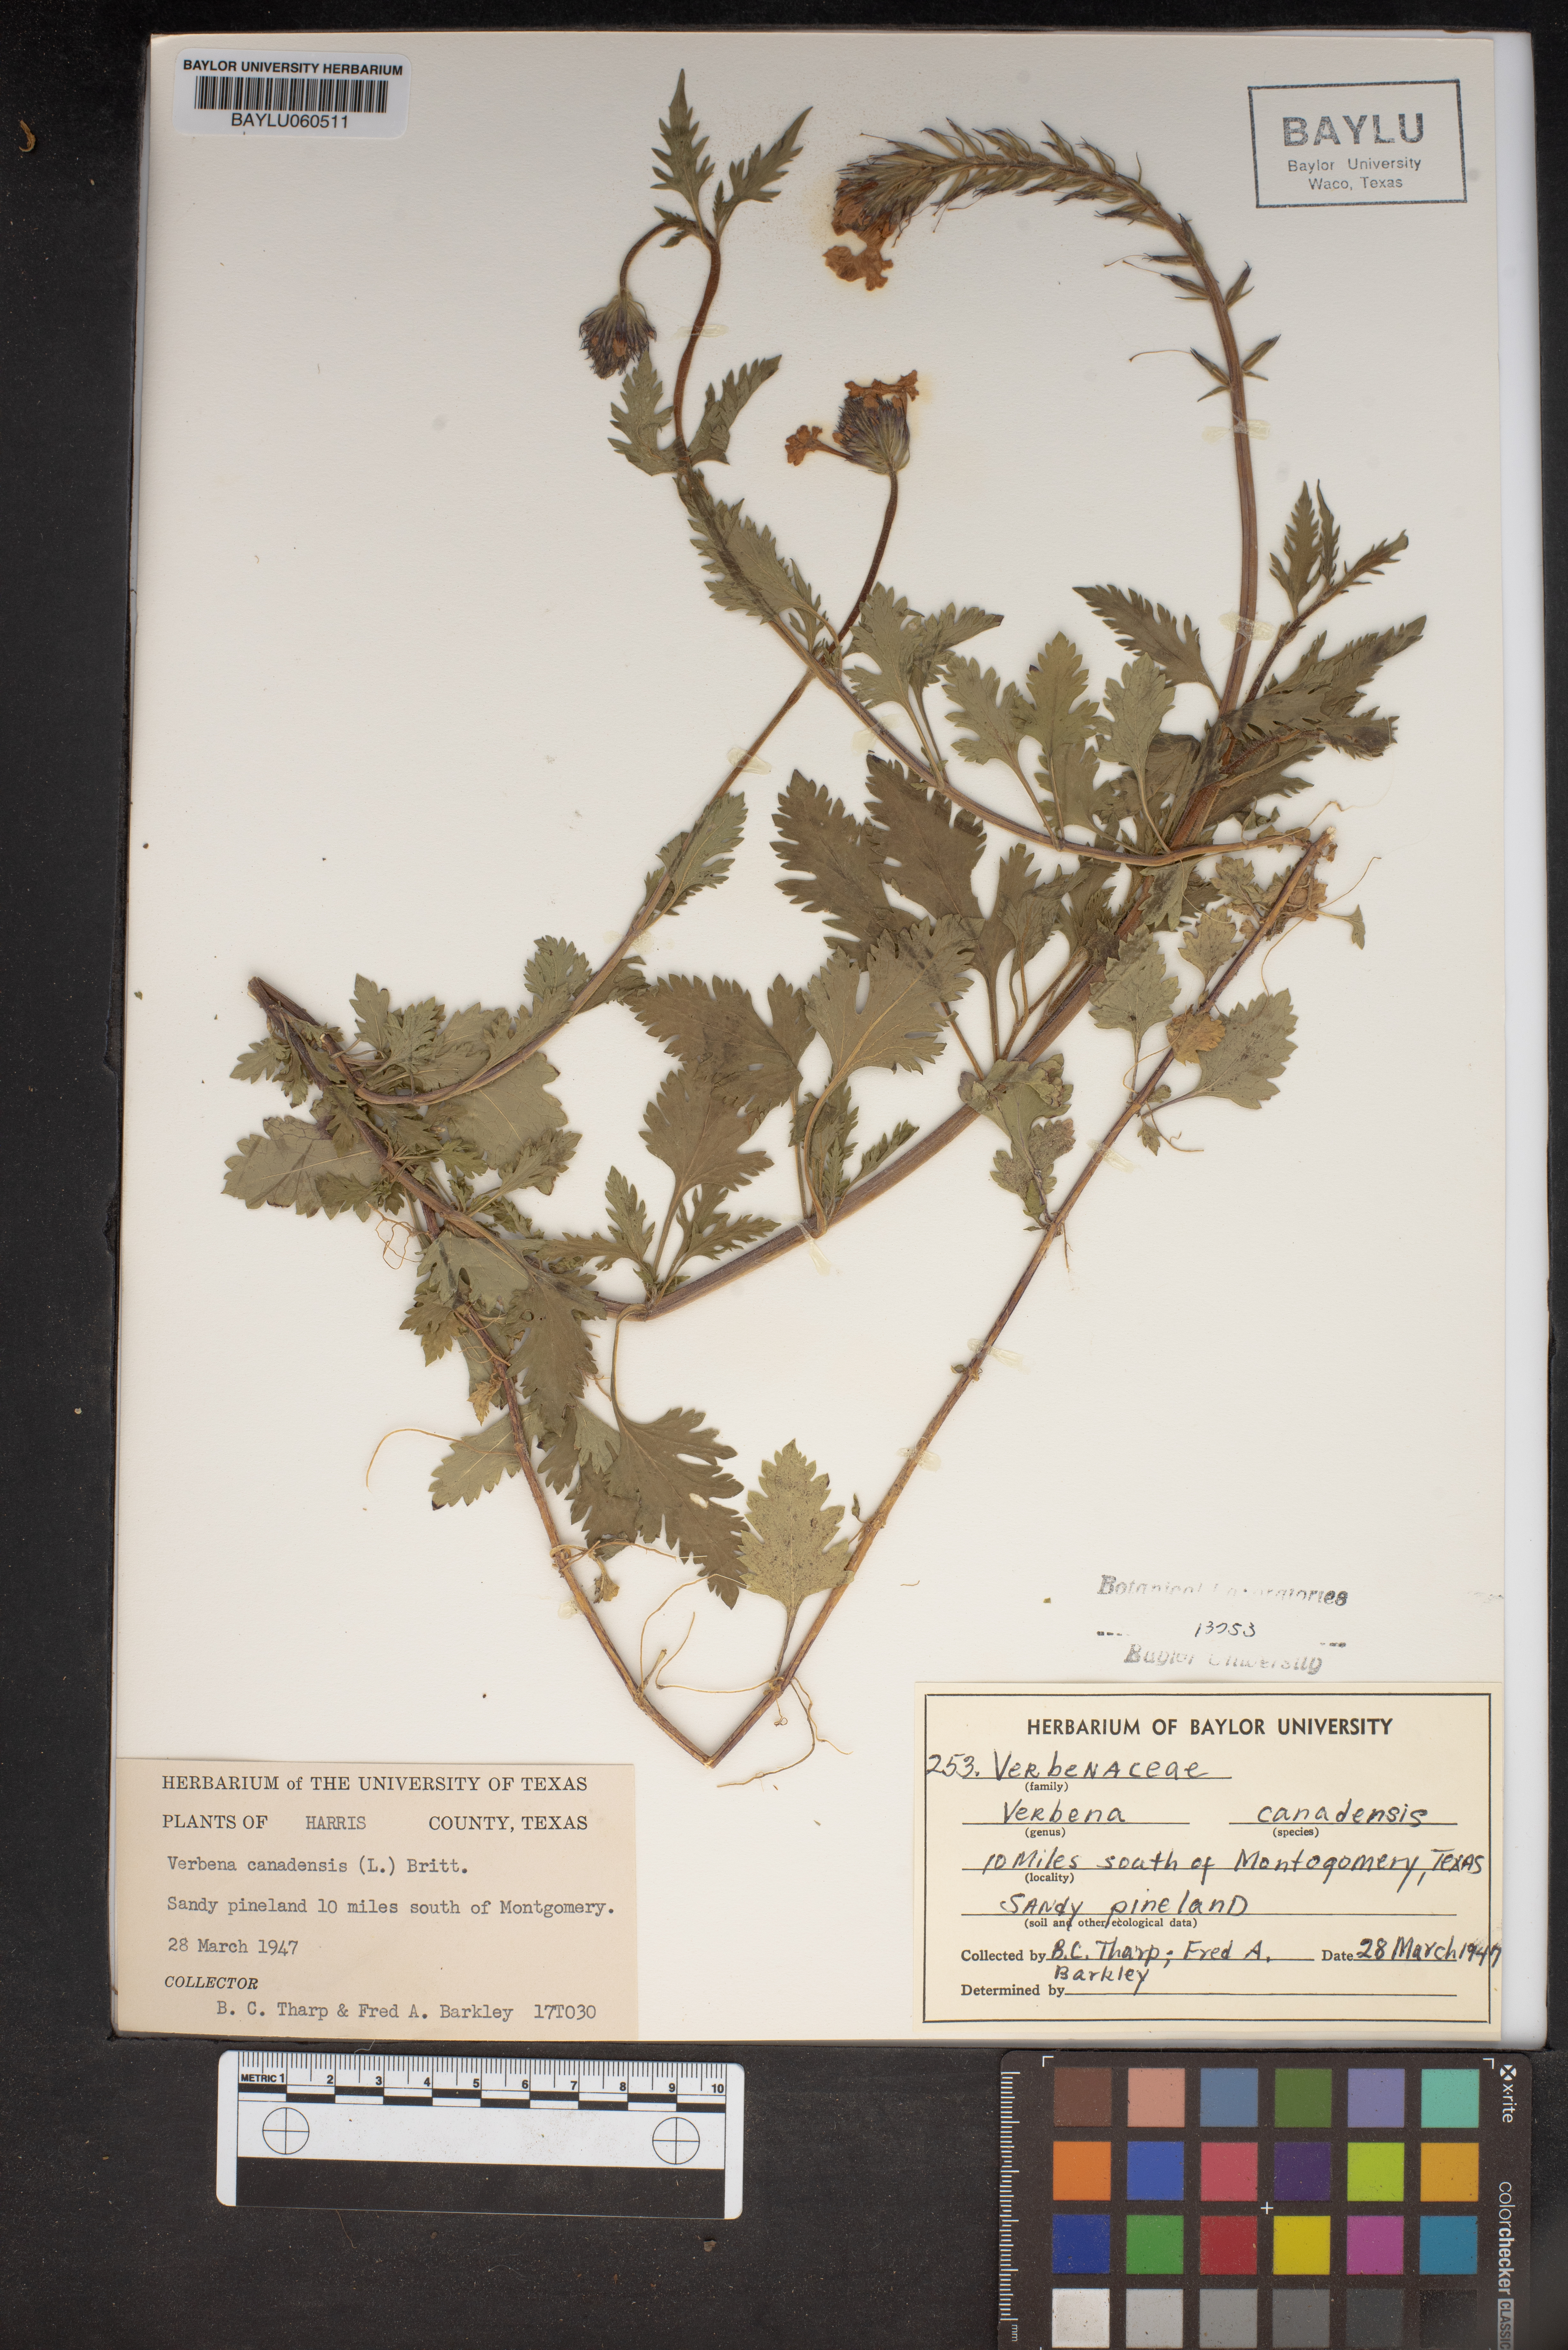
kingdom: Plantae
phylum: Tracheophyta
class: Magnoliopsida
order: Lamiales
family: Verbenaceae
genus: Verbena
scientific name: Verbena canadensis
